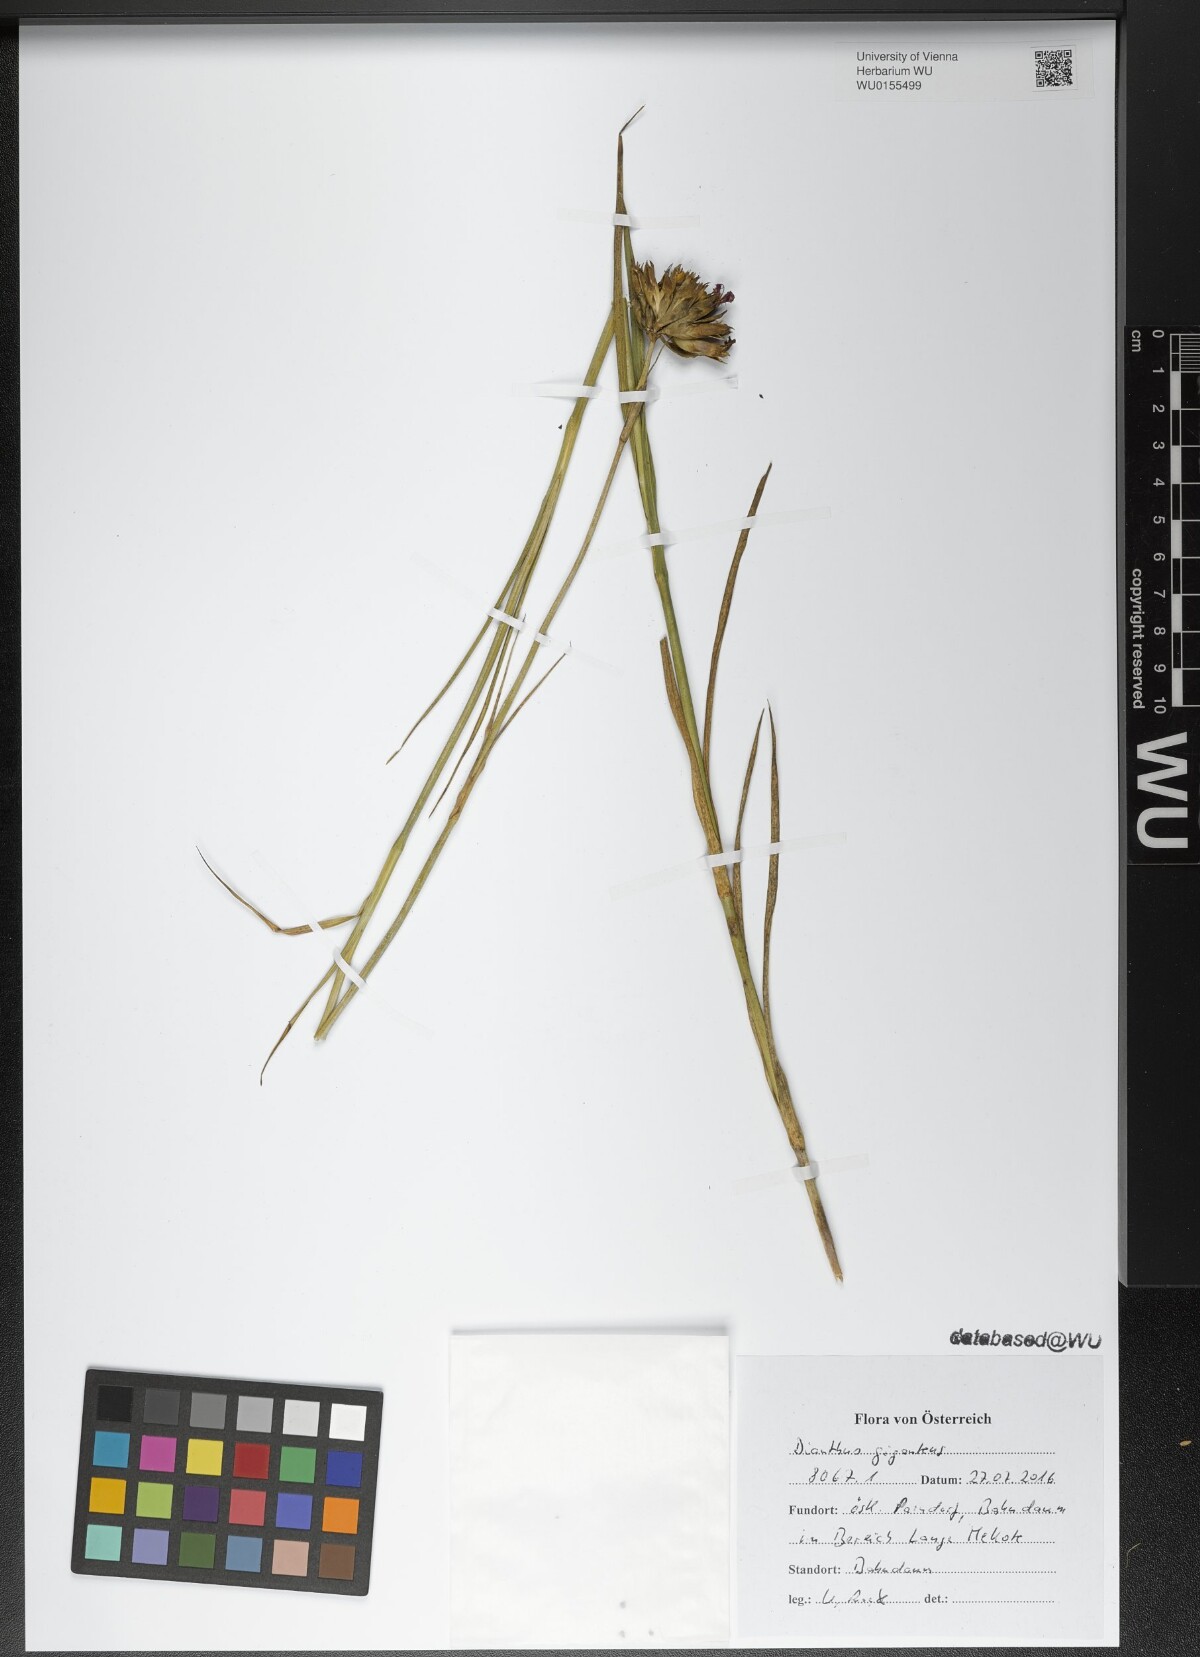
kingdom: Plantae
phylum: Tracheophyta
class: Magnoliopsida
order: Caryophyllales
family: Caryophyllaceae
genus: Dianthus
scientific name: Dianthus giganteus
